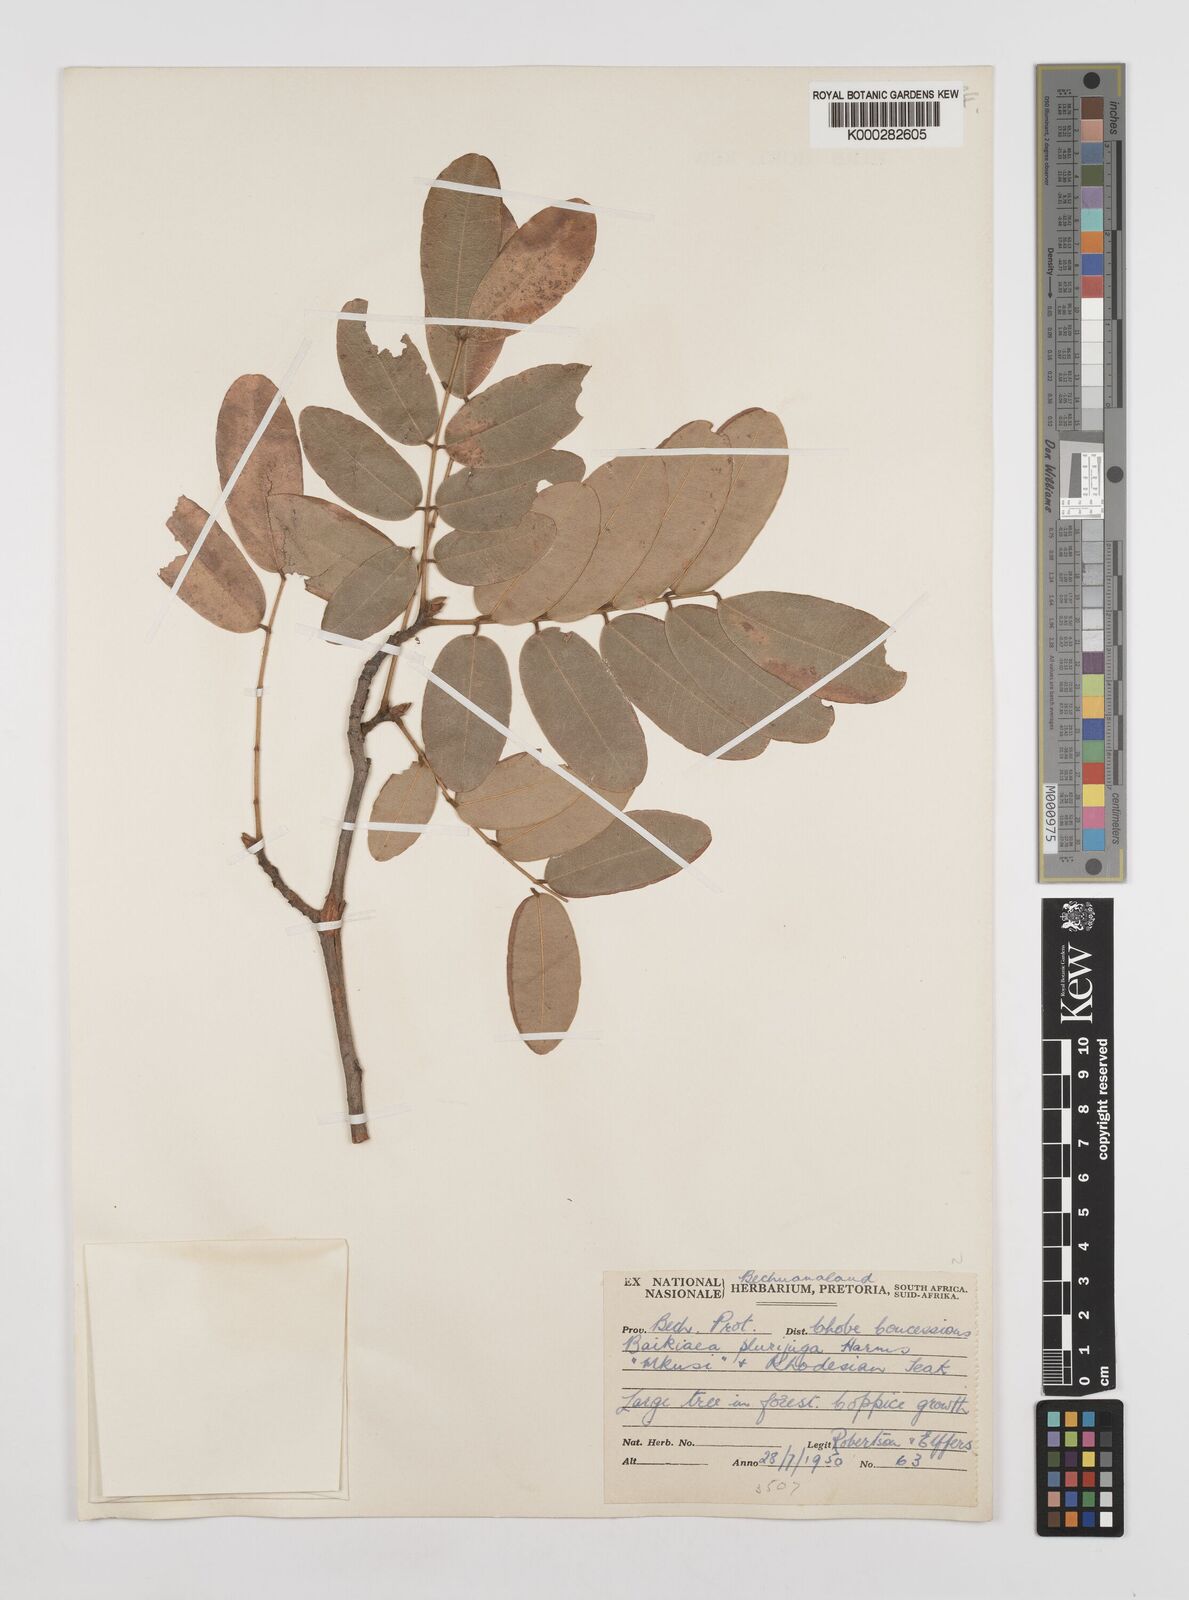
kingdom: Plantae
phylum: Tracheophyta
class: Magnoliopsida
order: Fabales
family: Fabaceae
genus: Baikiaea
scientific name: Baikiaea plurijuga
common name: Rhodesian-teak
